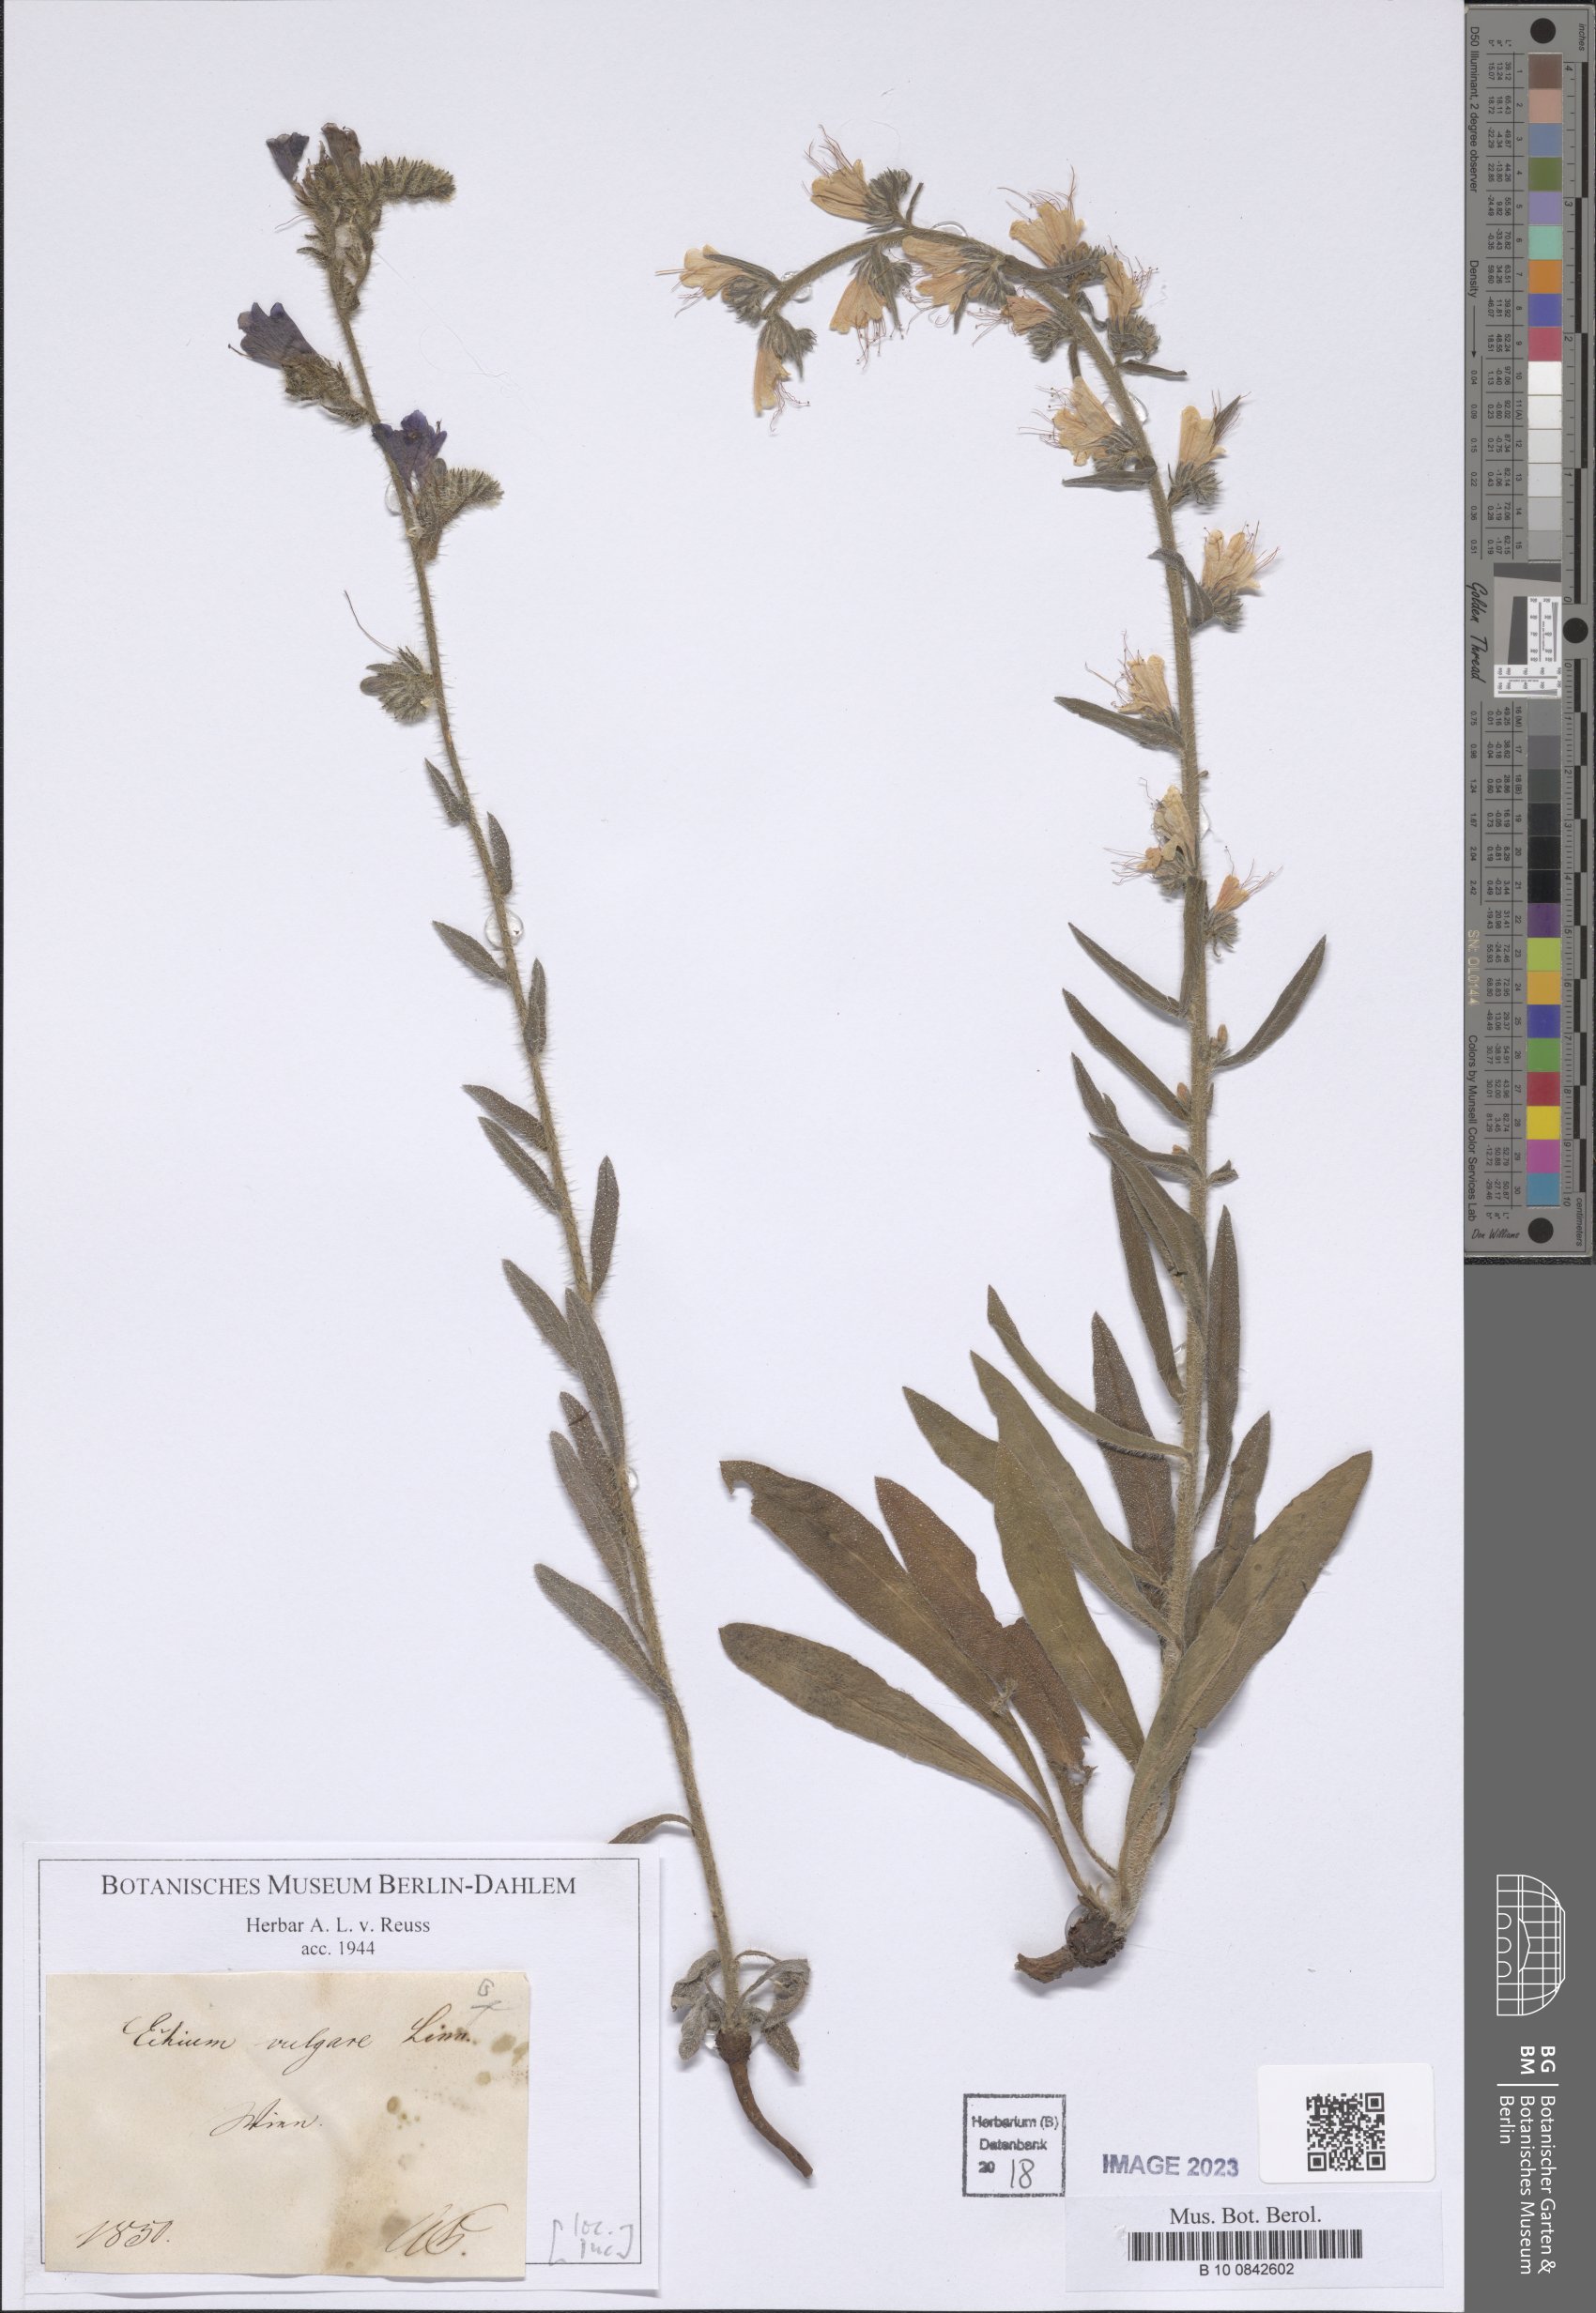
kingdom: Plantae
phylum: Tracheophyta
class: Magnoliopsida
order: Boraginales
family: Boraginaceae
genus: Echium
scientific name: Echium vulgare
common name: Common viper's bugloss
